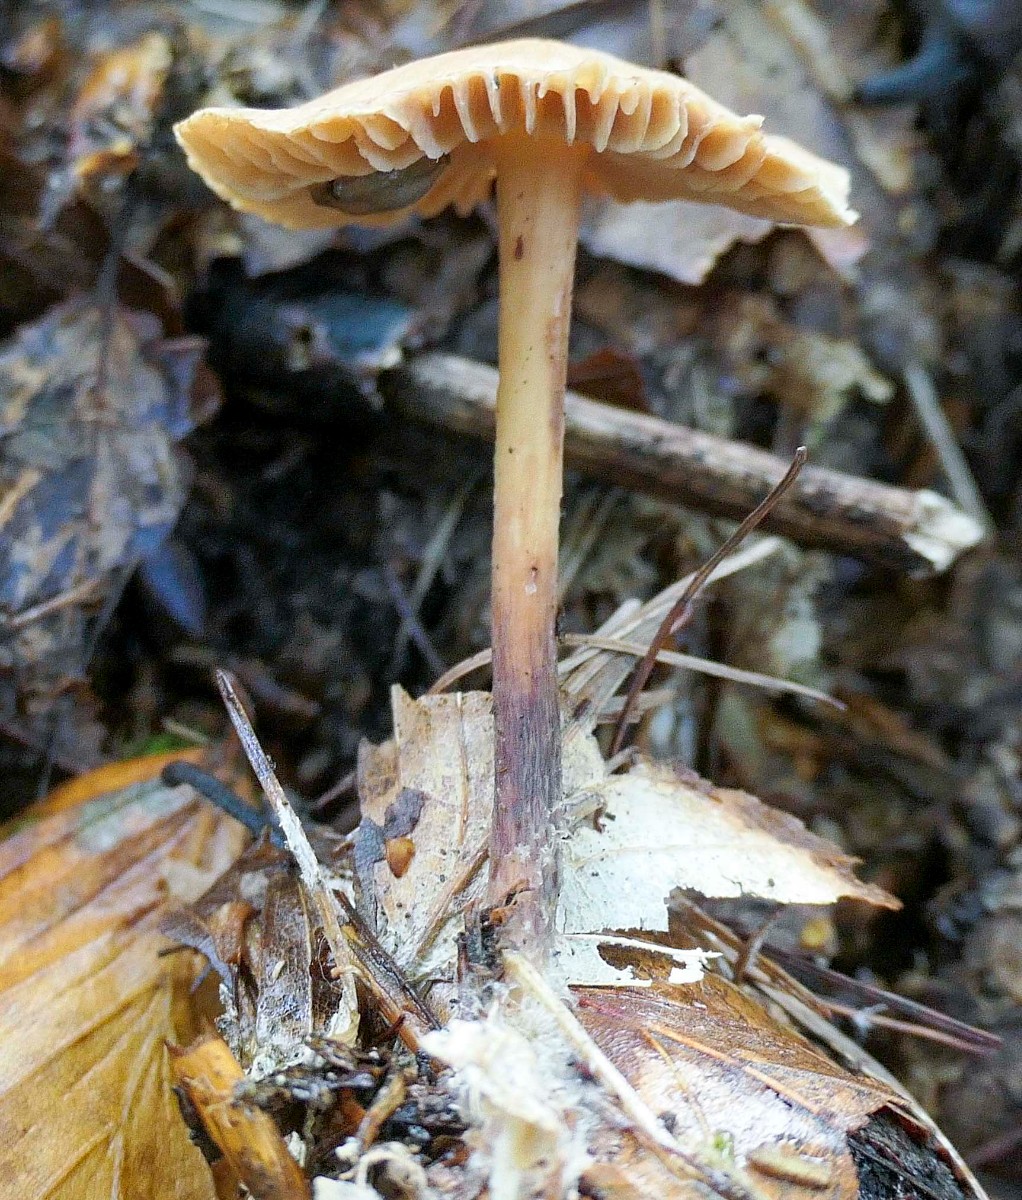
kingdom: Fungi
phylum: Basidiomycota
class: Agaricomycetes
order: Agaricales
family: Omphalotaceae
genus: Gymnopus
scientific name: Gymnopus fagiphilus
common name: bøgeløv-fladhat
